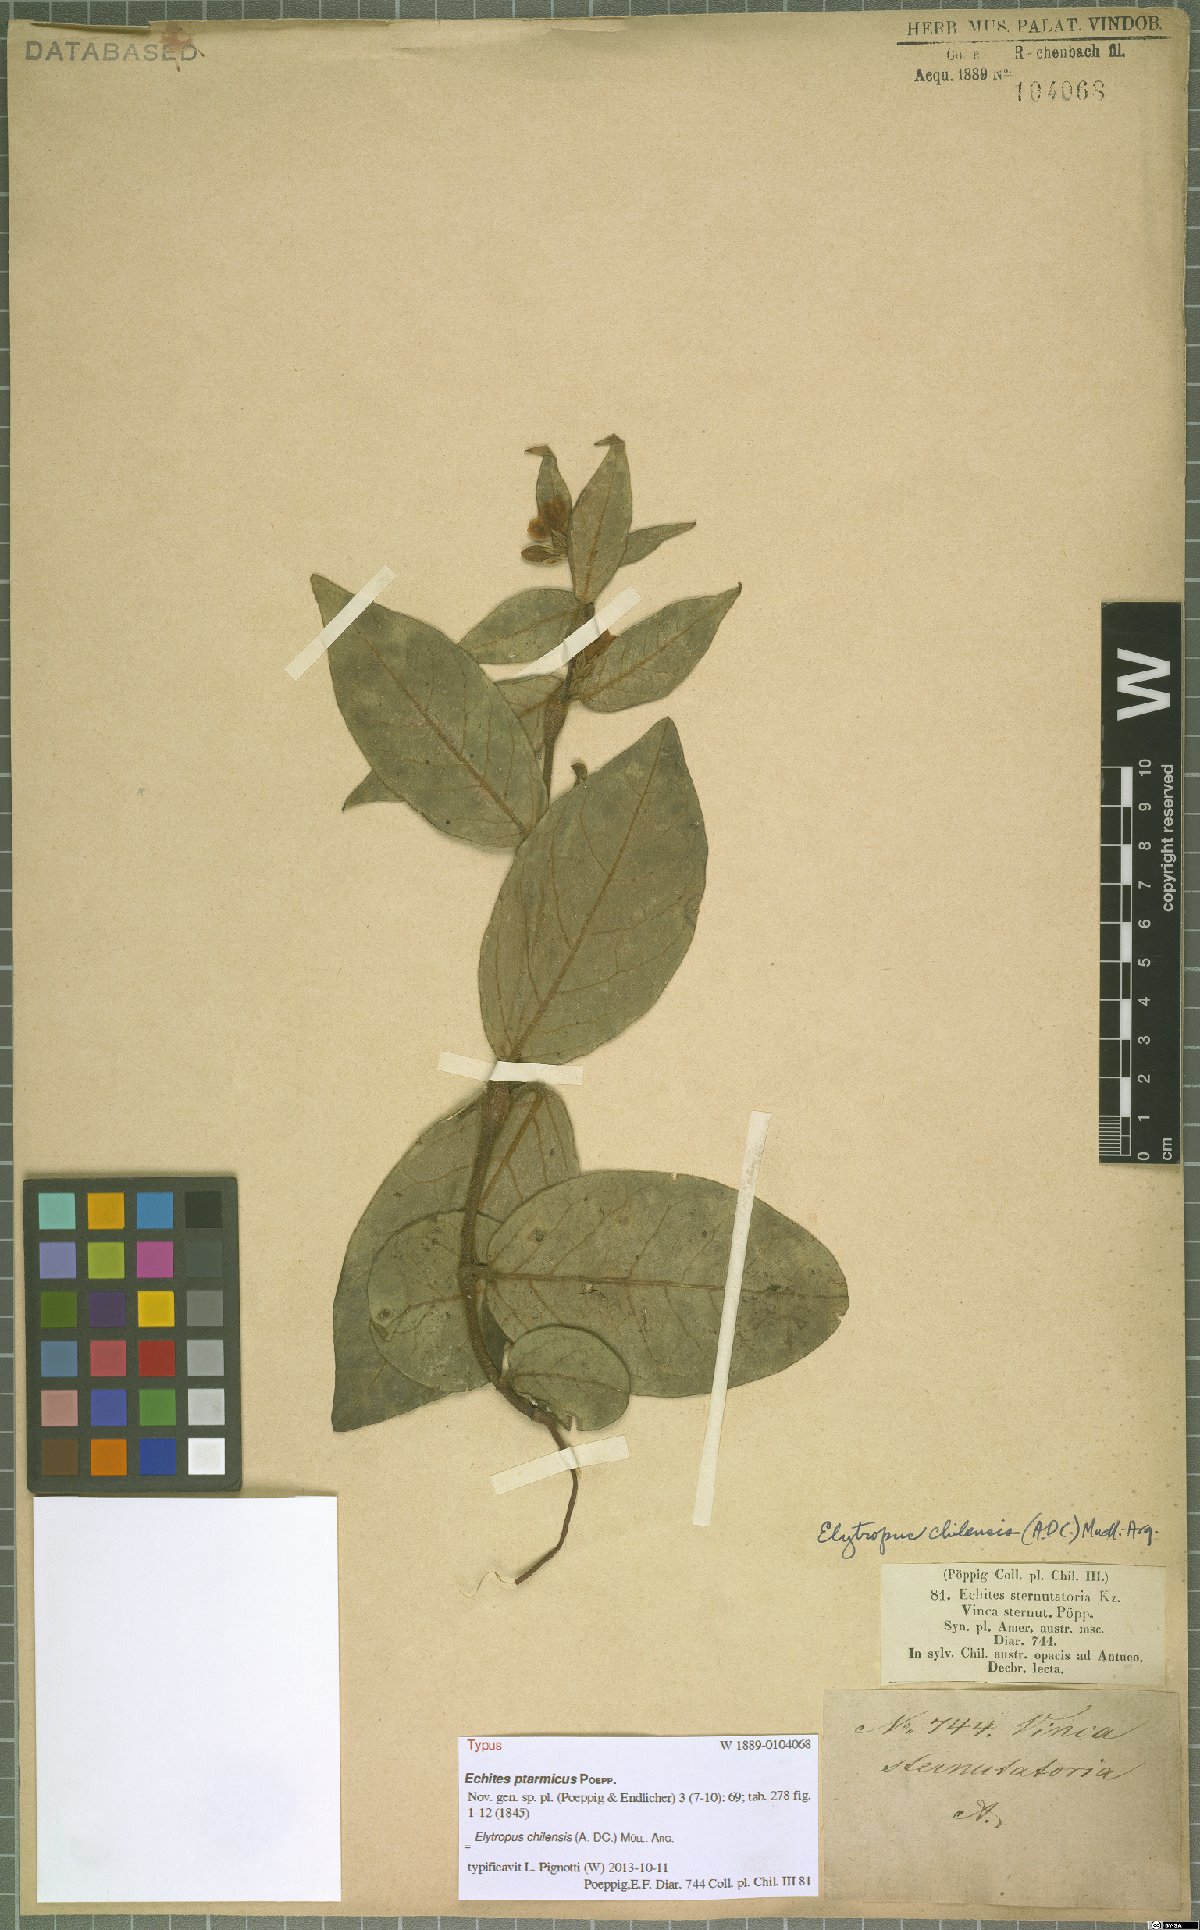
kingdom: Plantae
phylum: Tracheophyta
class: Magnoliopsida
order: Gentianales
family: Apocynaceae
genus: Mandevilla
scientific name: Mandevilla pubescens
